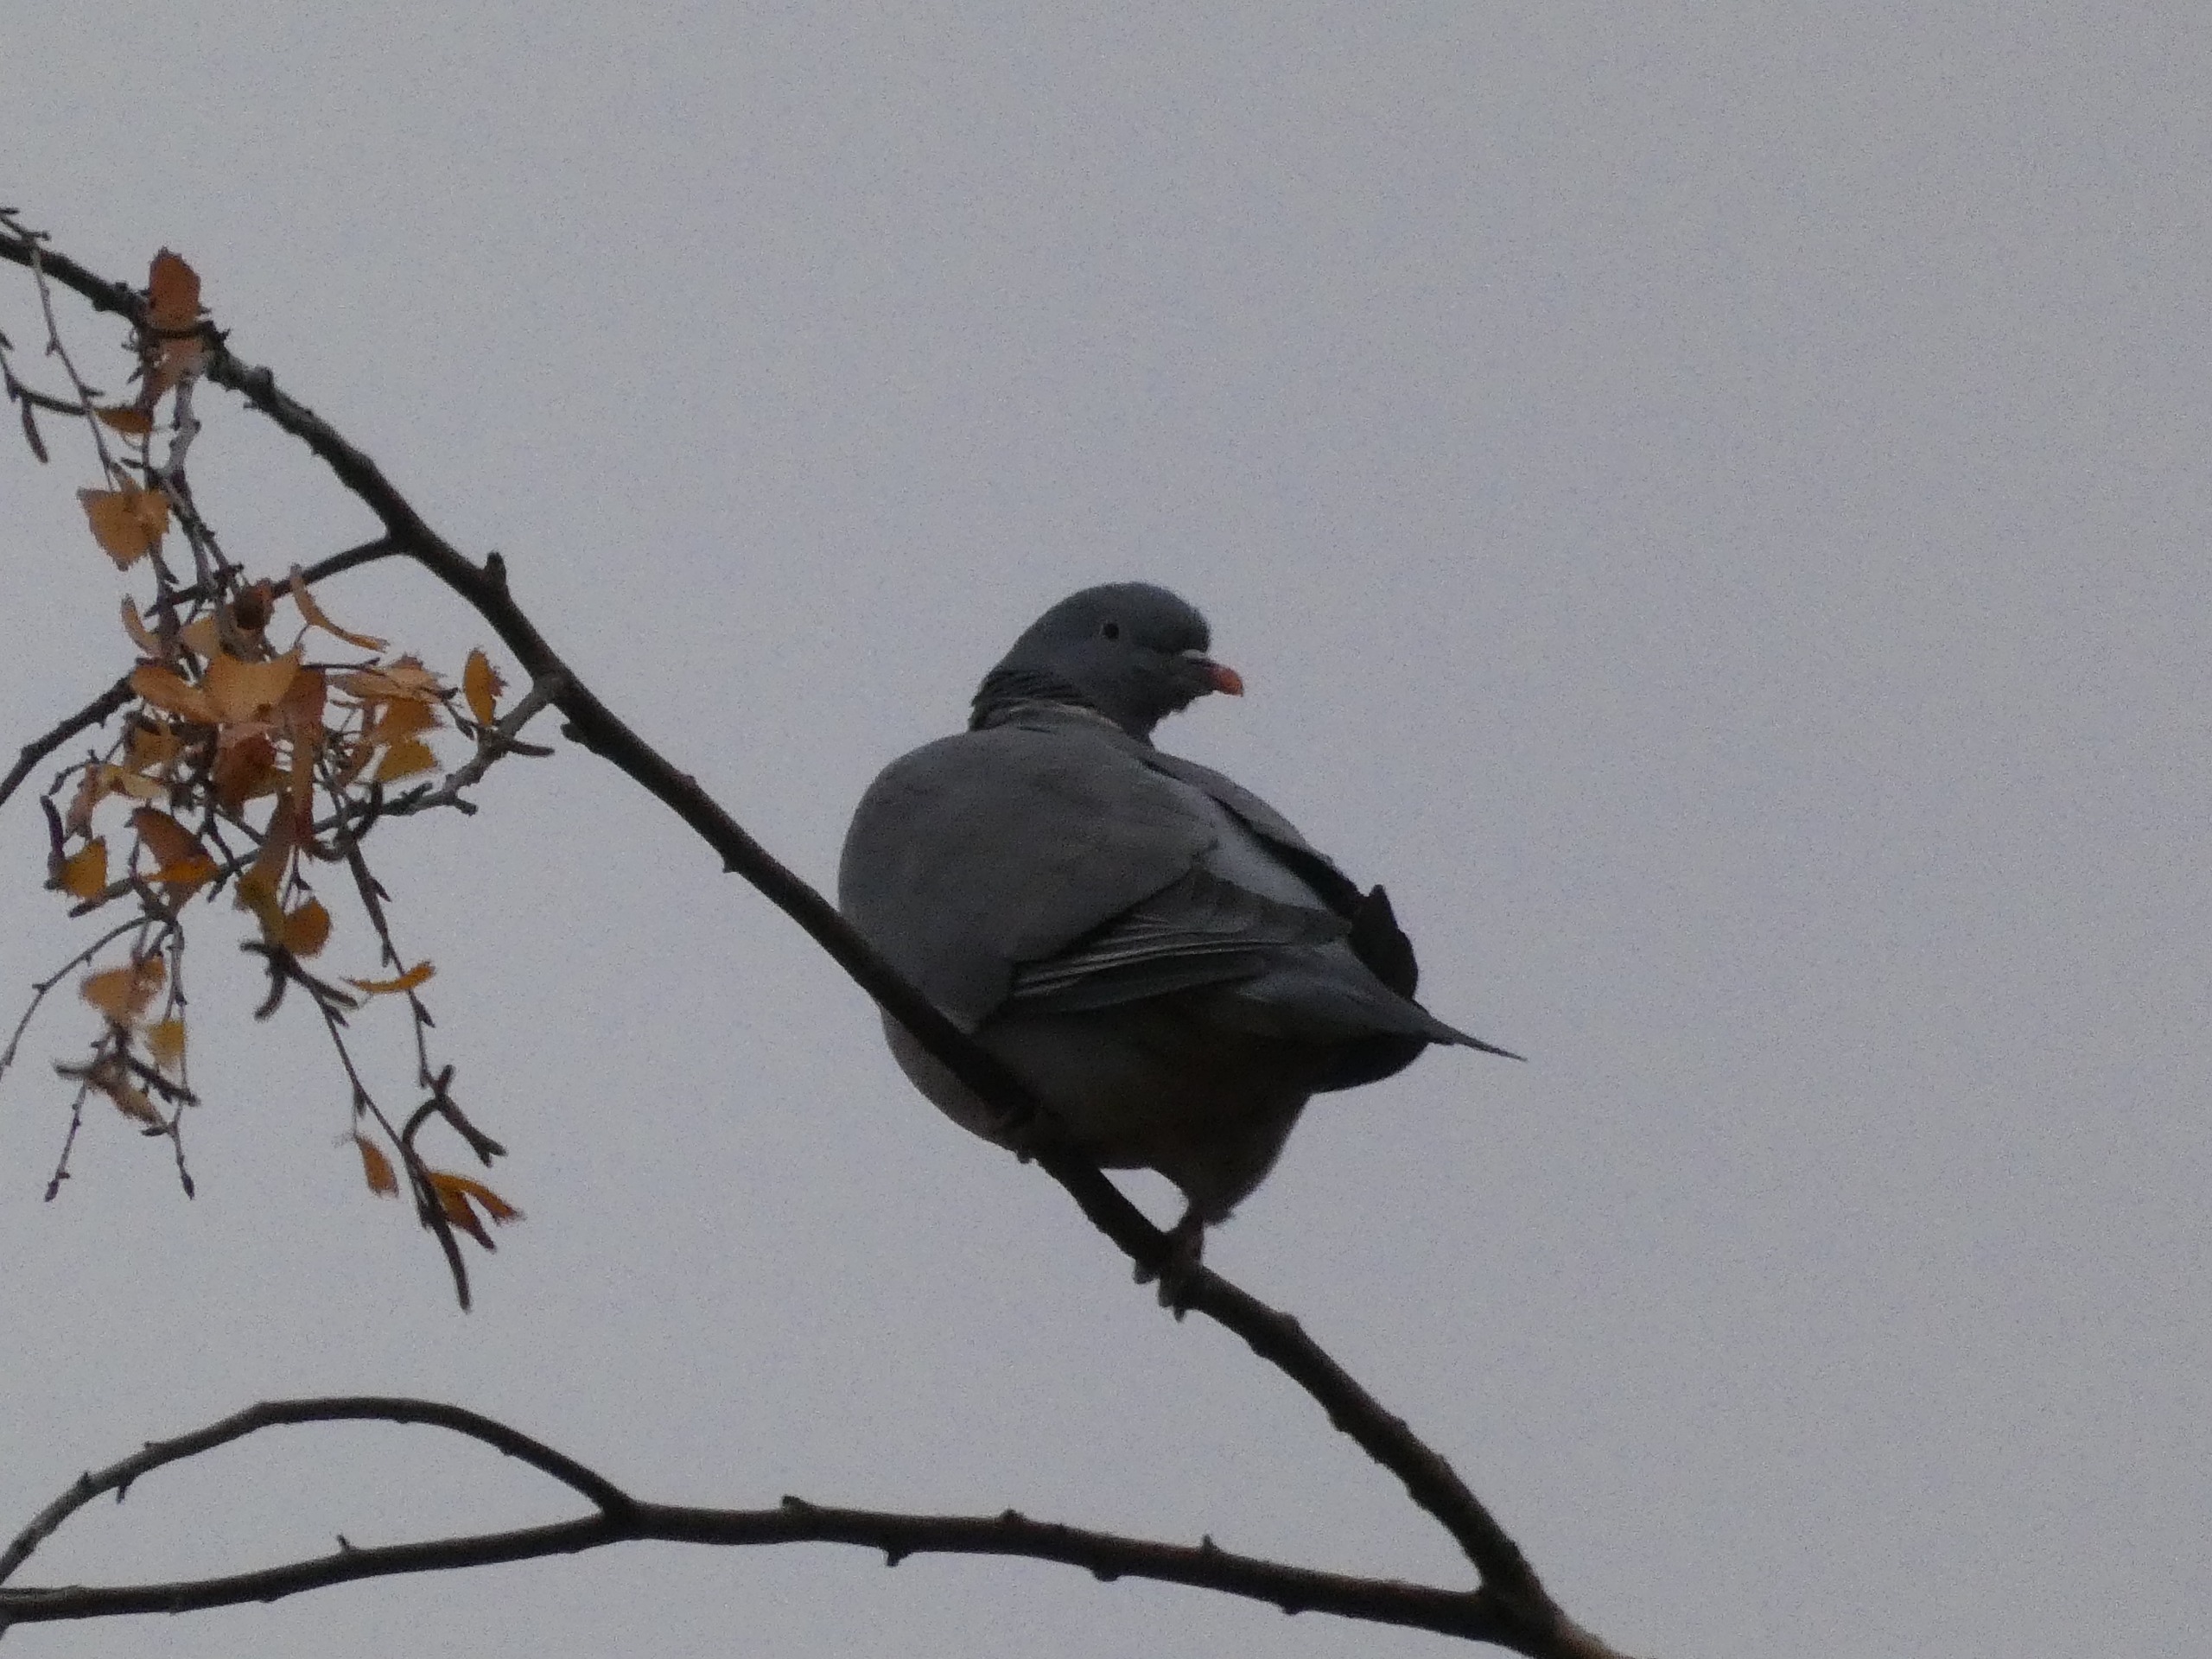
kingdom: Animalia
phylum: Chordata
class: Aves
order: Columbiformes
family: Columbidae
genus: Columba
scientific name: Columba palumbus
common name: Ringdue
